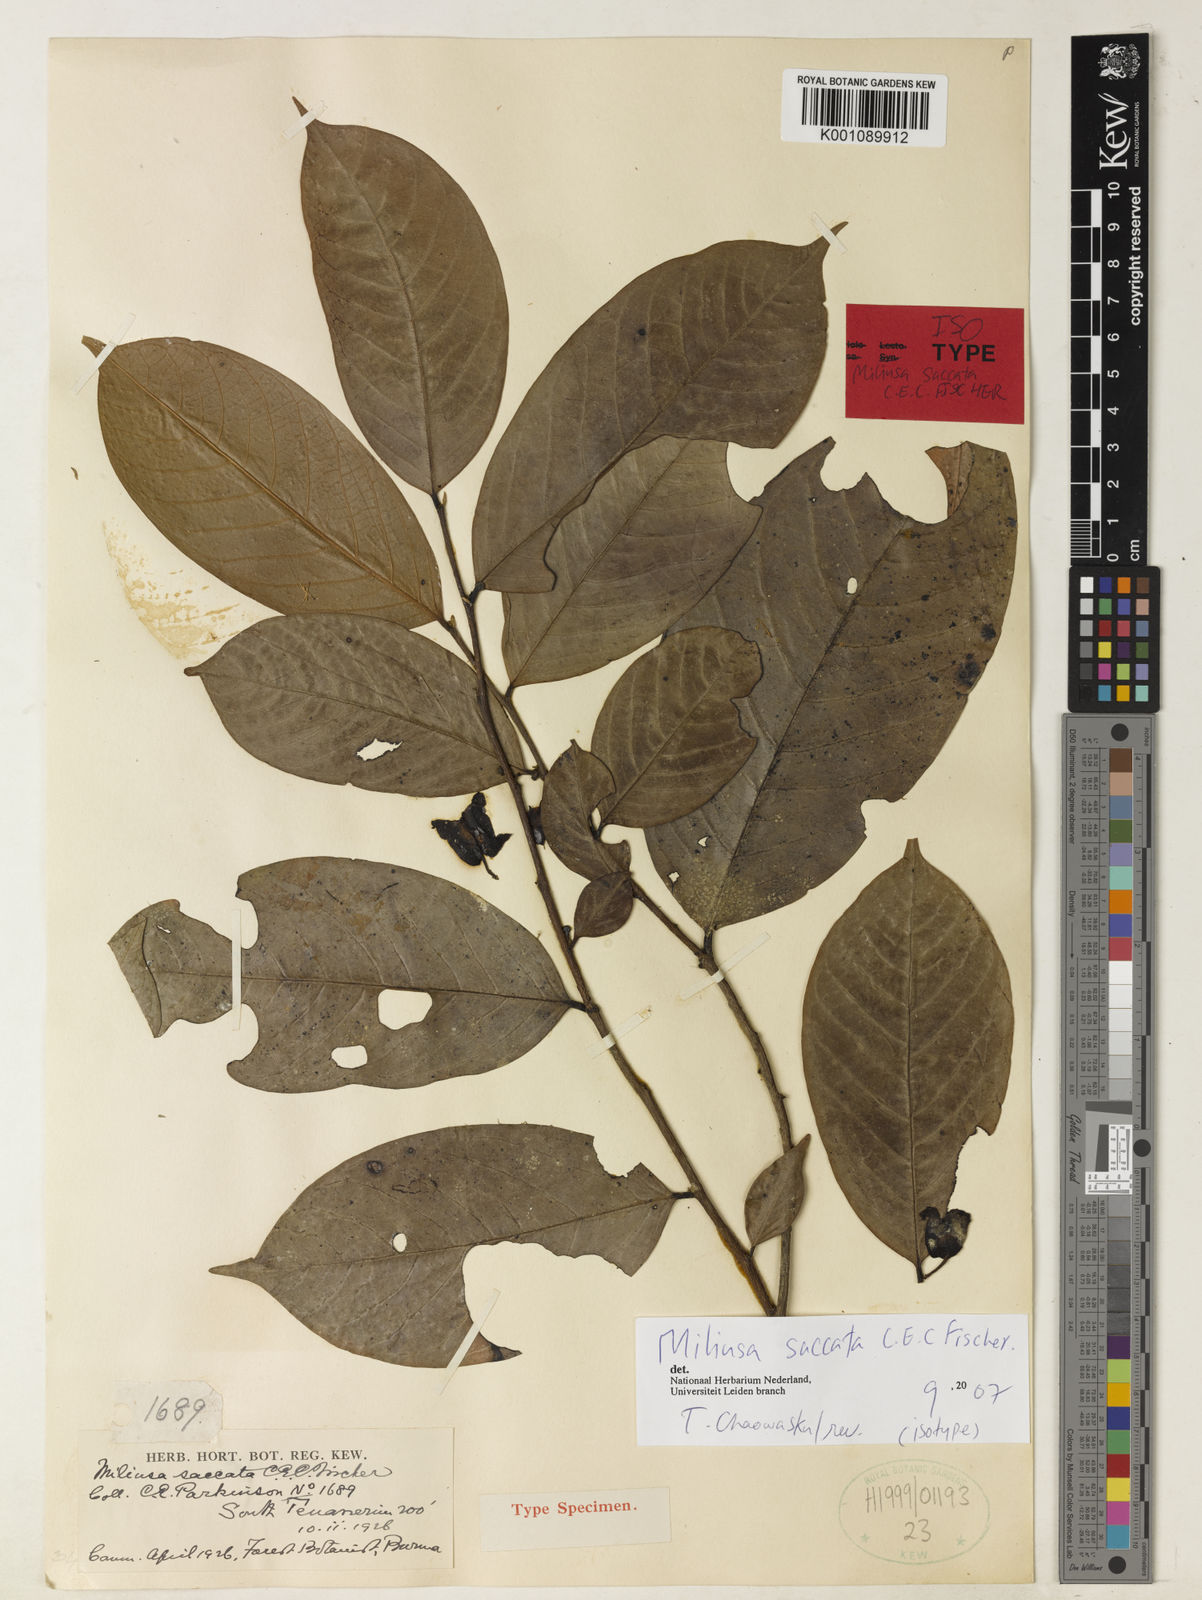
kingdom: Plantae
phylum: Tracheophyta
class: Magnoliopsida
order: Magnoliales
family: Annonaceae
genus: Miliusa
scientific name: Miliusa saccata
